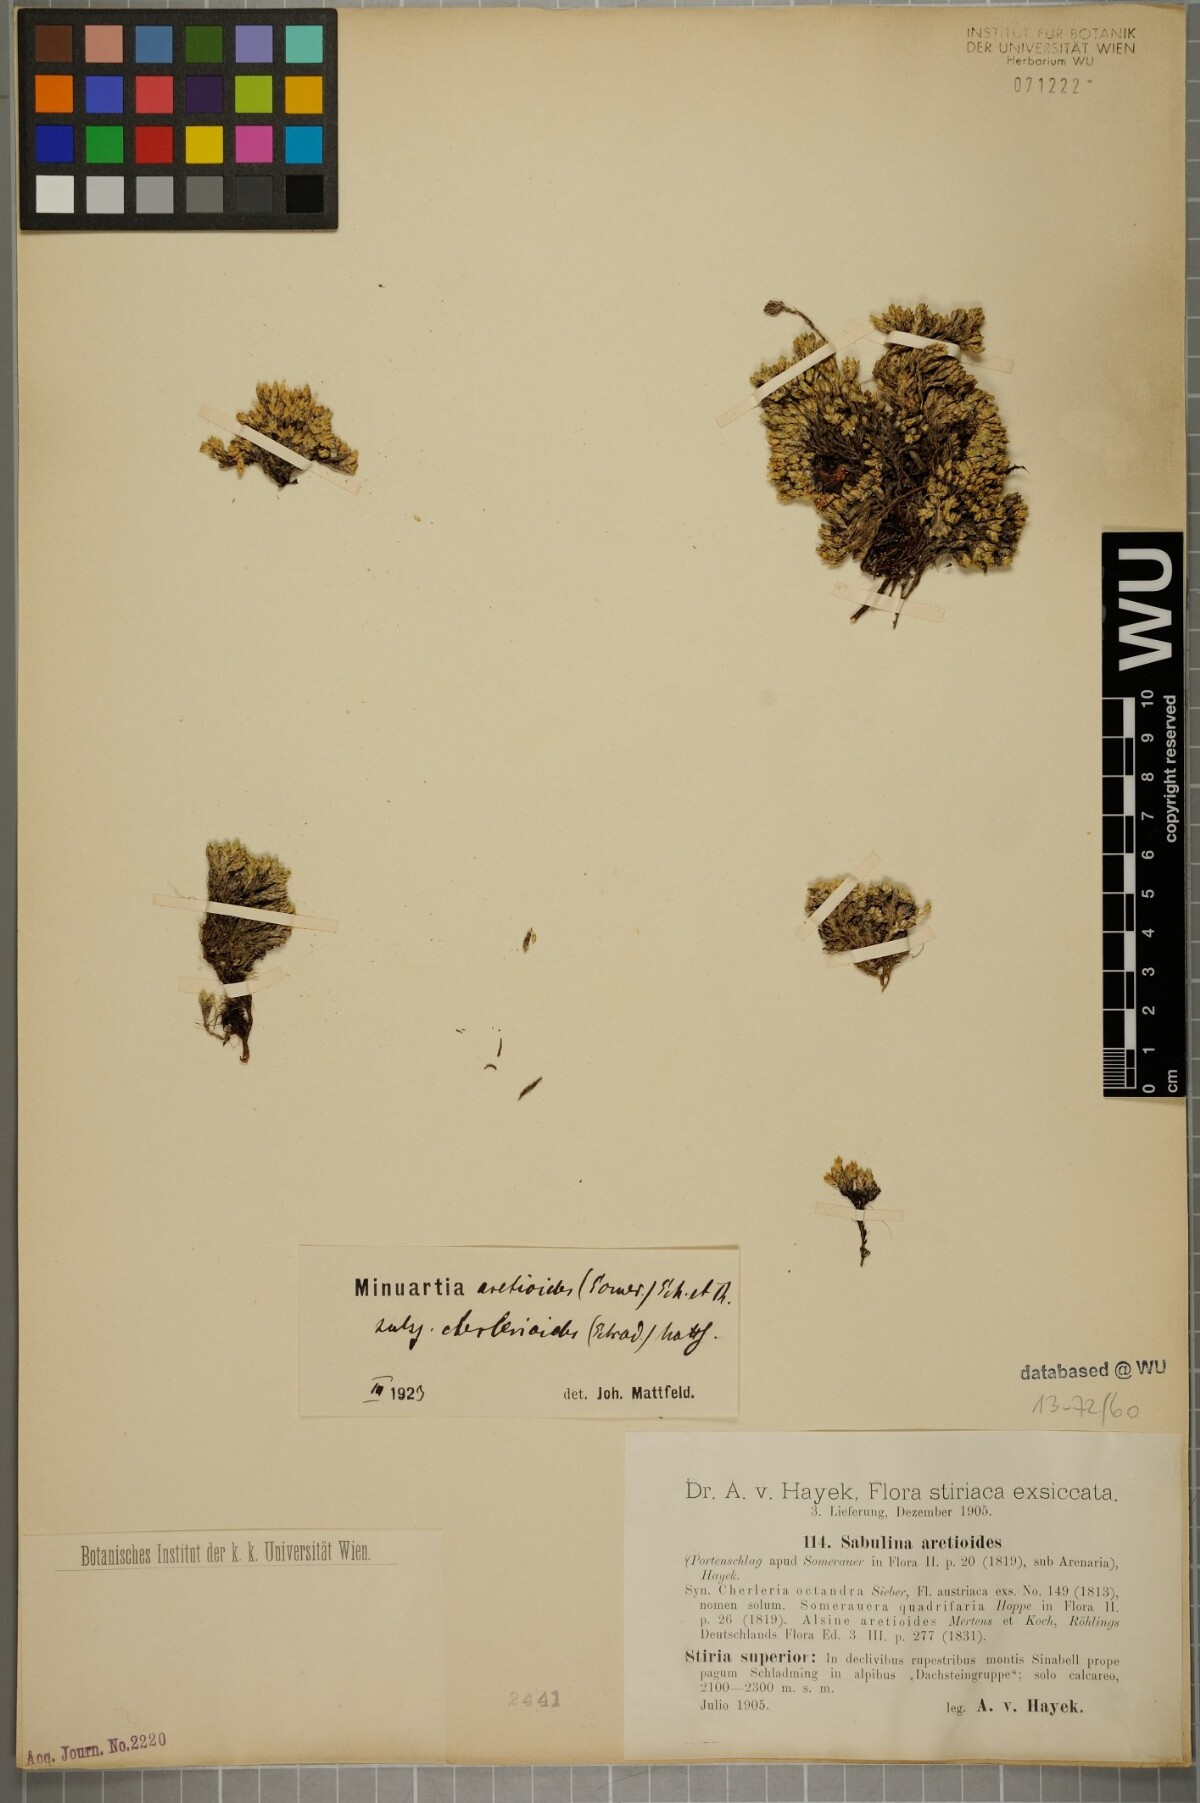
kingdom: Plantae
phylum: Tracheophyta
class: Magnoliopsida
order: Caryophyllales
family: Caryophyllaceae
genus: Facchinia
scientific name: Facchinia cherlerioides
